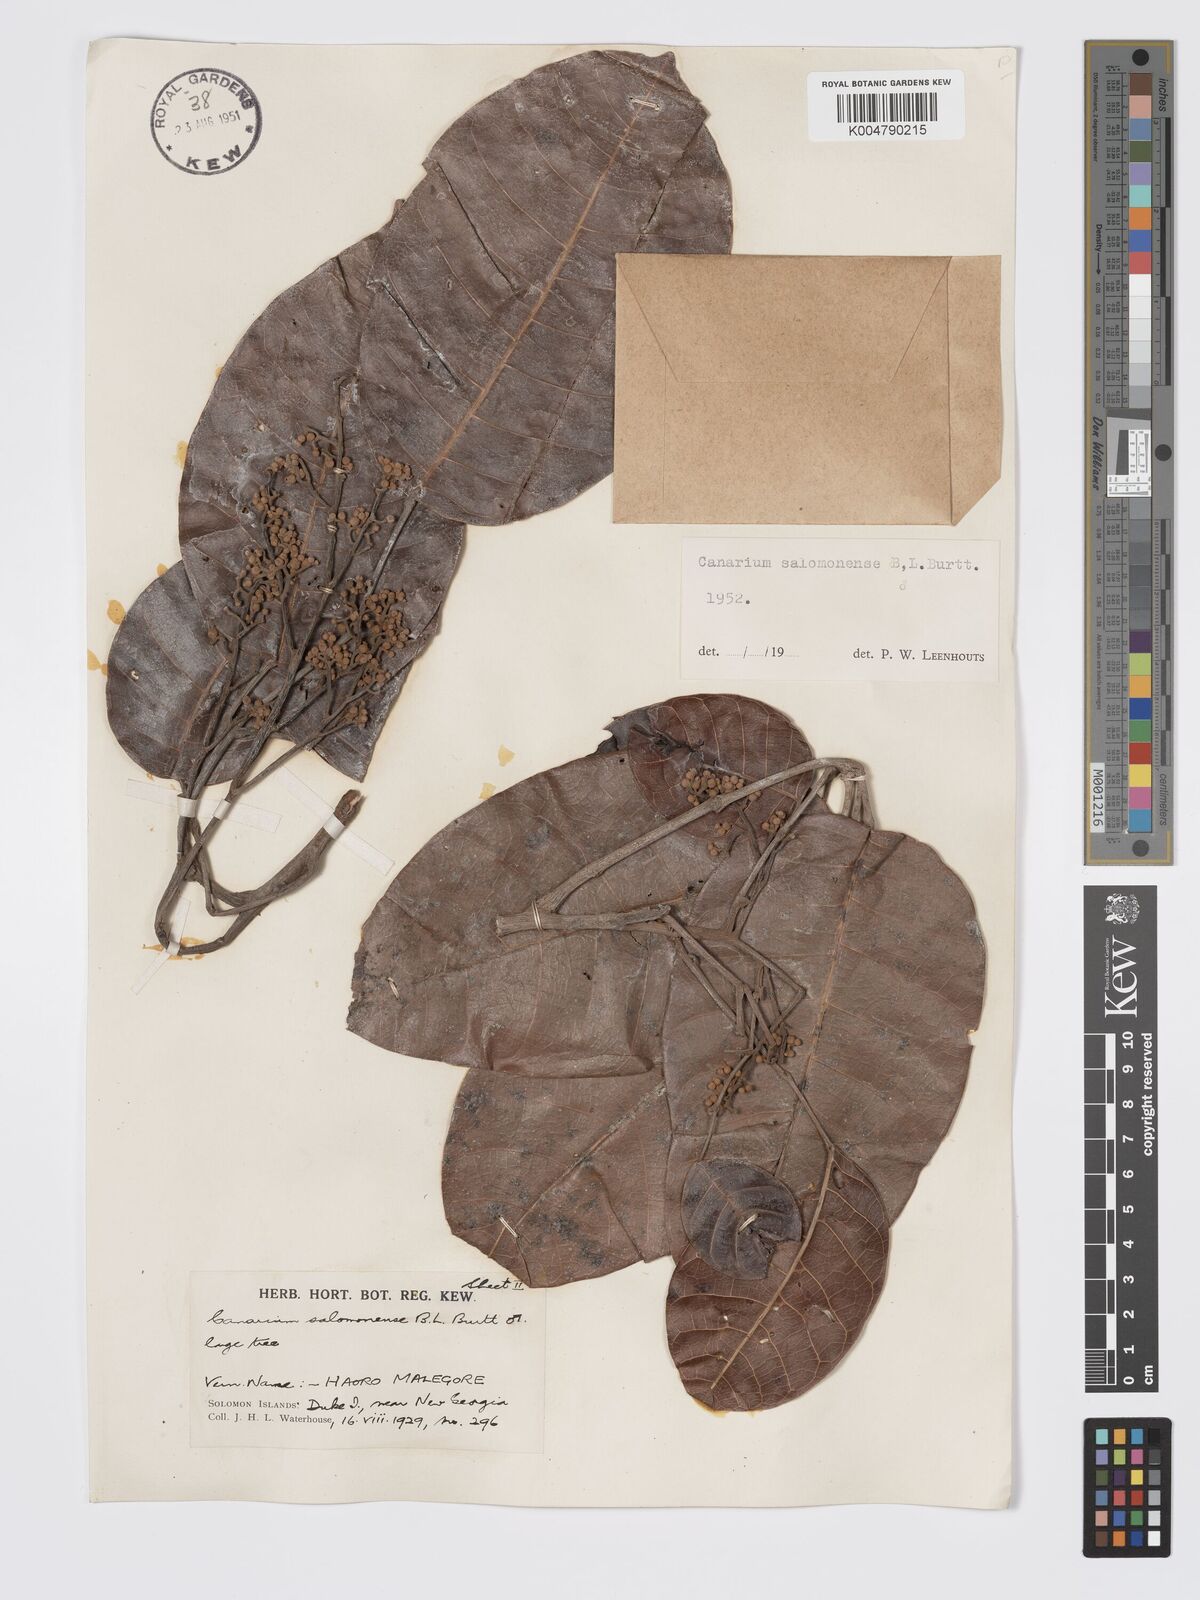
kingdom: Plantae
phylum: Tracheophyta
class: Magnoliopsida
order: Sapindales
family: Burseraceae
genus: Canarium
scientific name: Canarium salomonense
